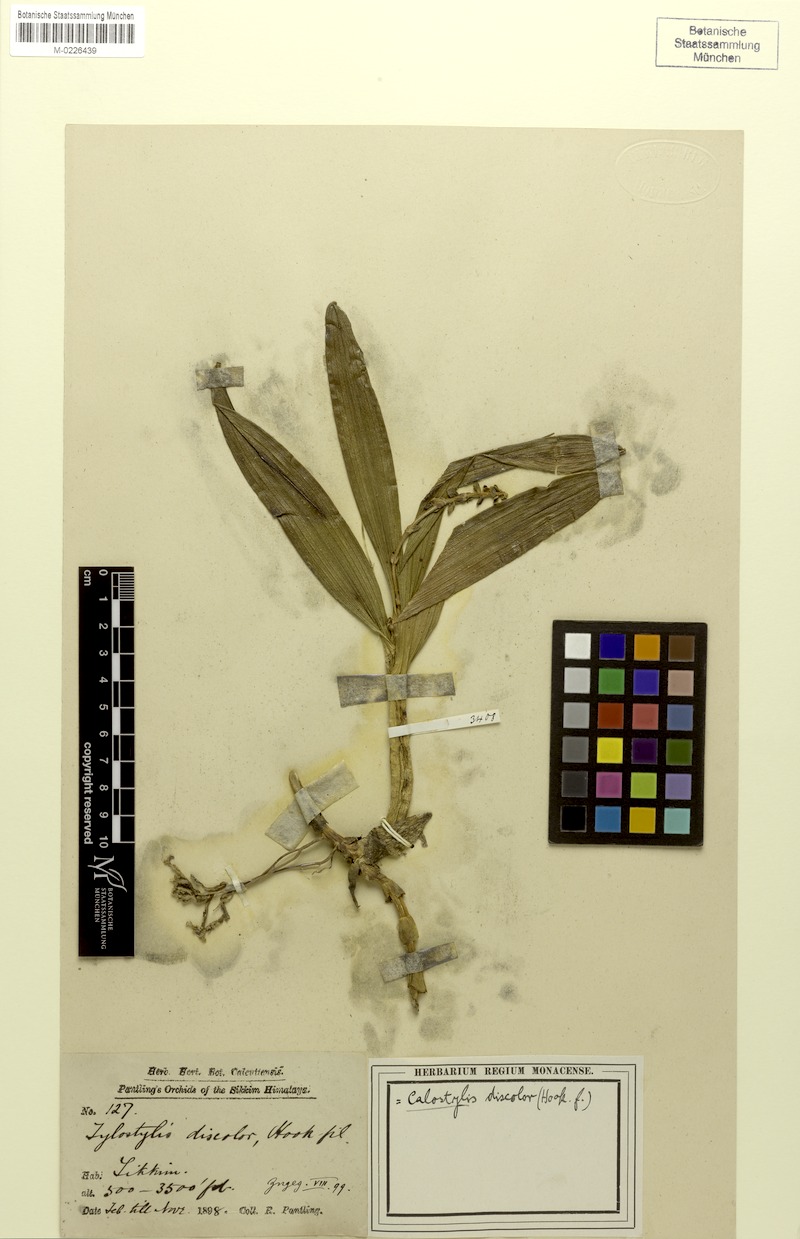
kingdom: Plantae
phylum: Tracheophyta
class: Liliopsida
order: Asparagales
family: Orchidaceae
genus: Callostylis
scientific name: Callostylis rigida
